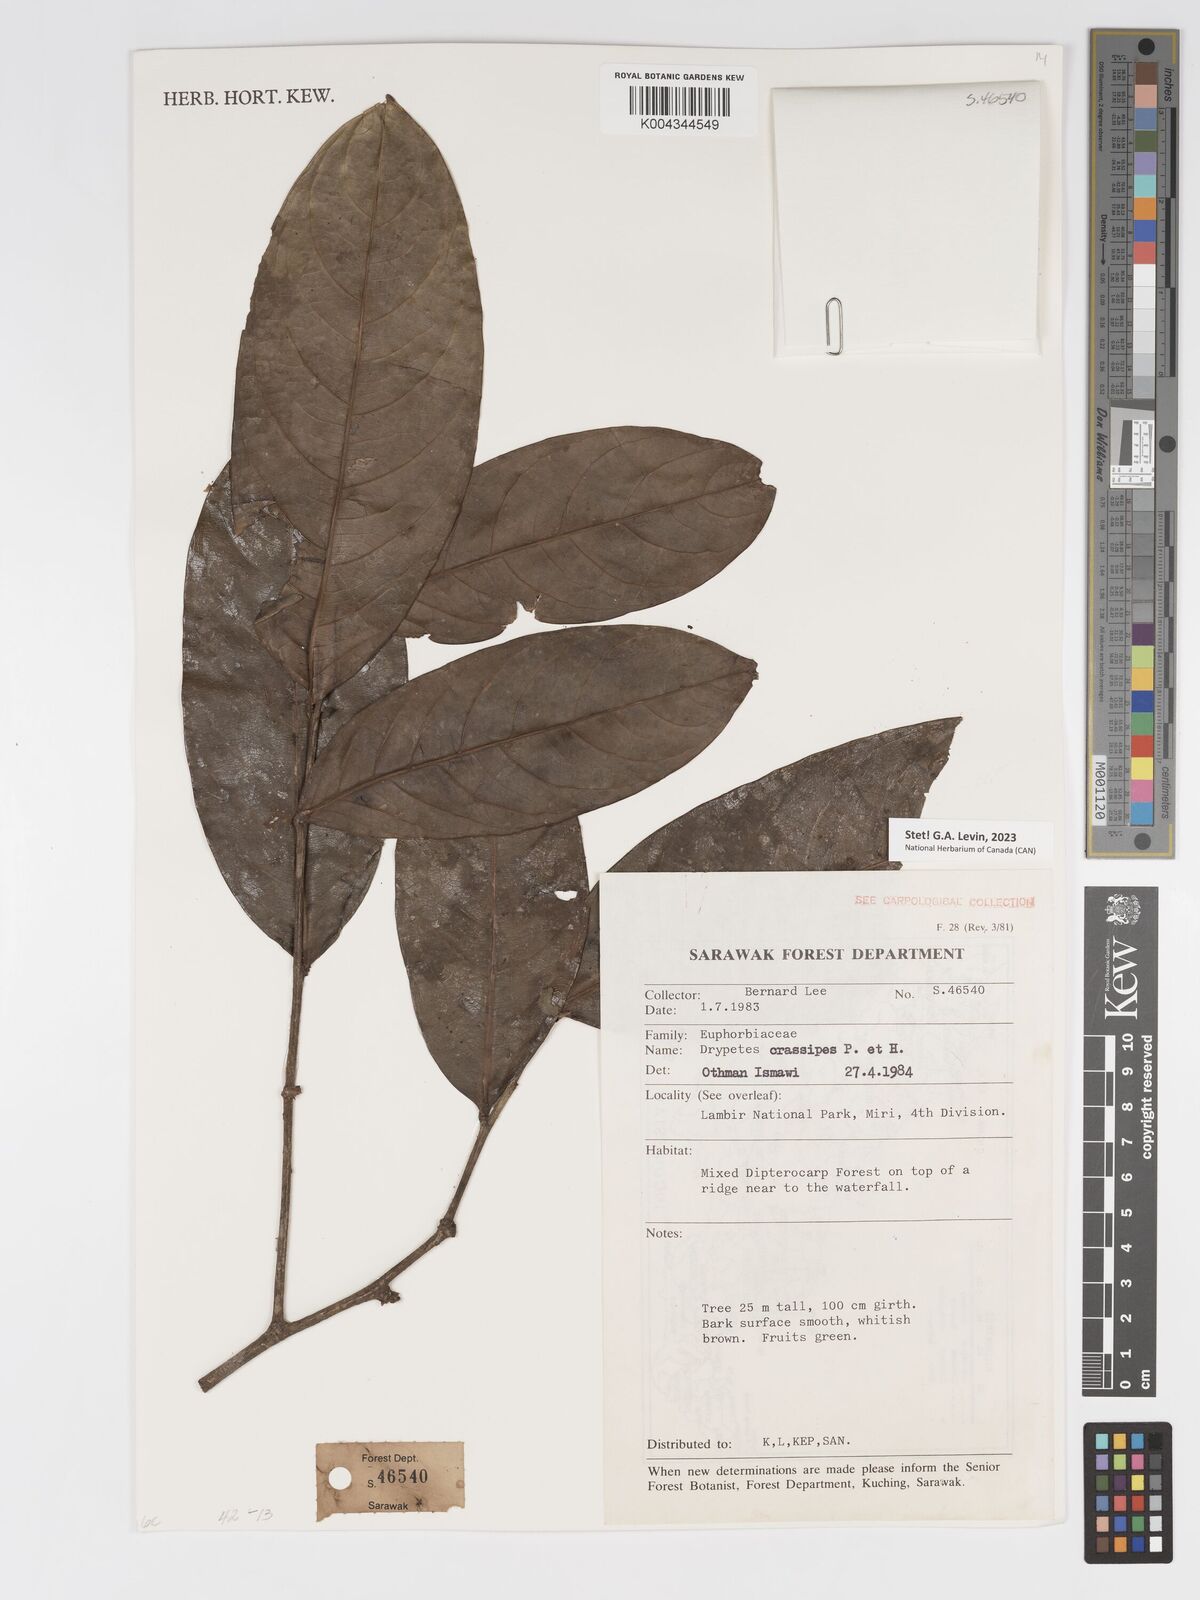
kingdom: Plantae
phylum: Tracheophyta
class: Magnoliopsida
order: Malpighiales
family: Putranjivaceae
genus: Drypetes
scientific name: Drypetes crassipes
